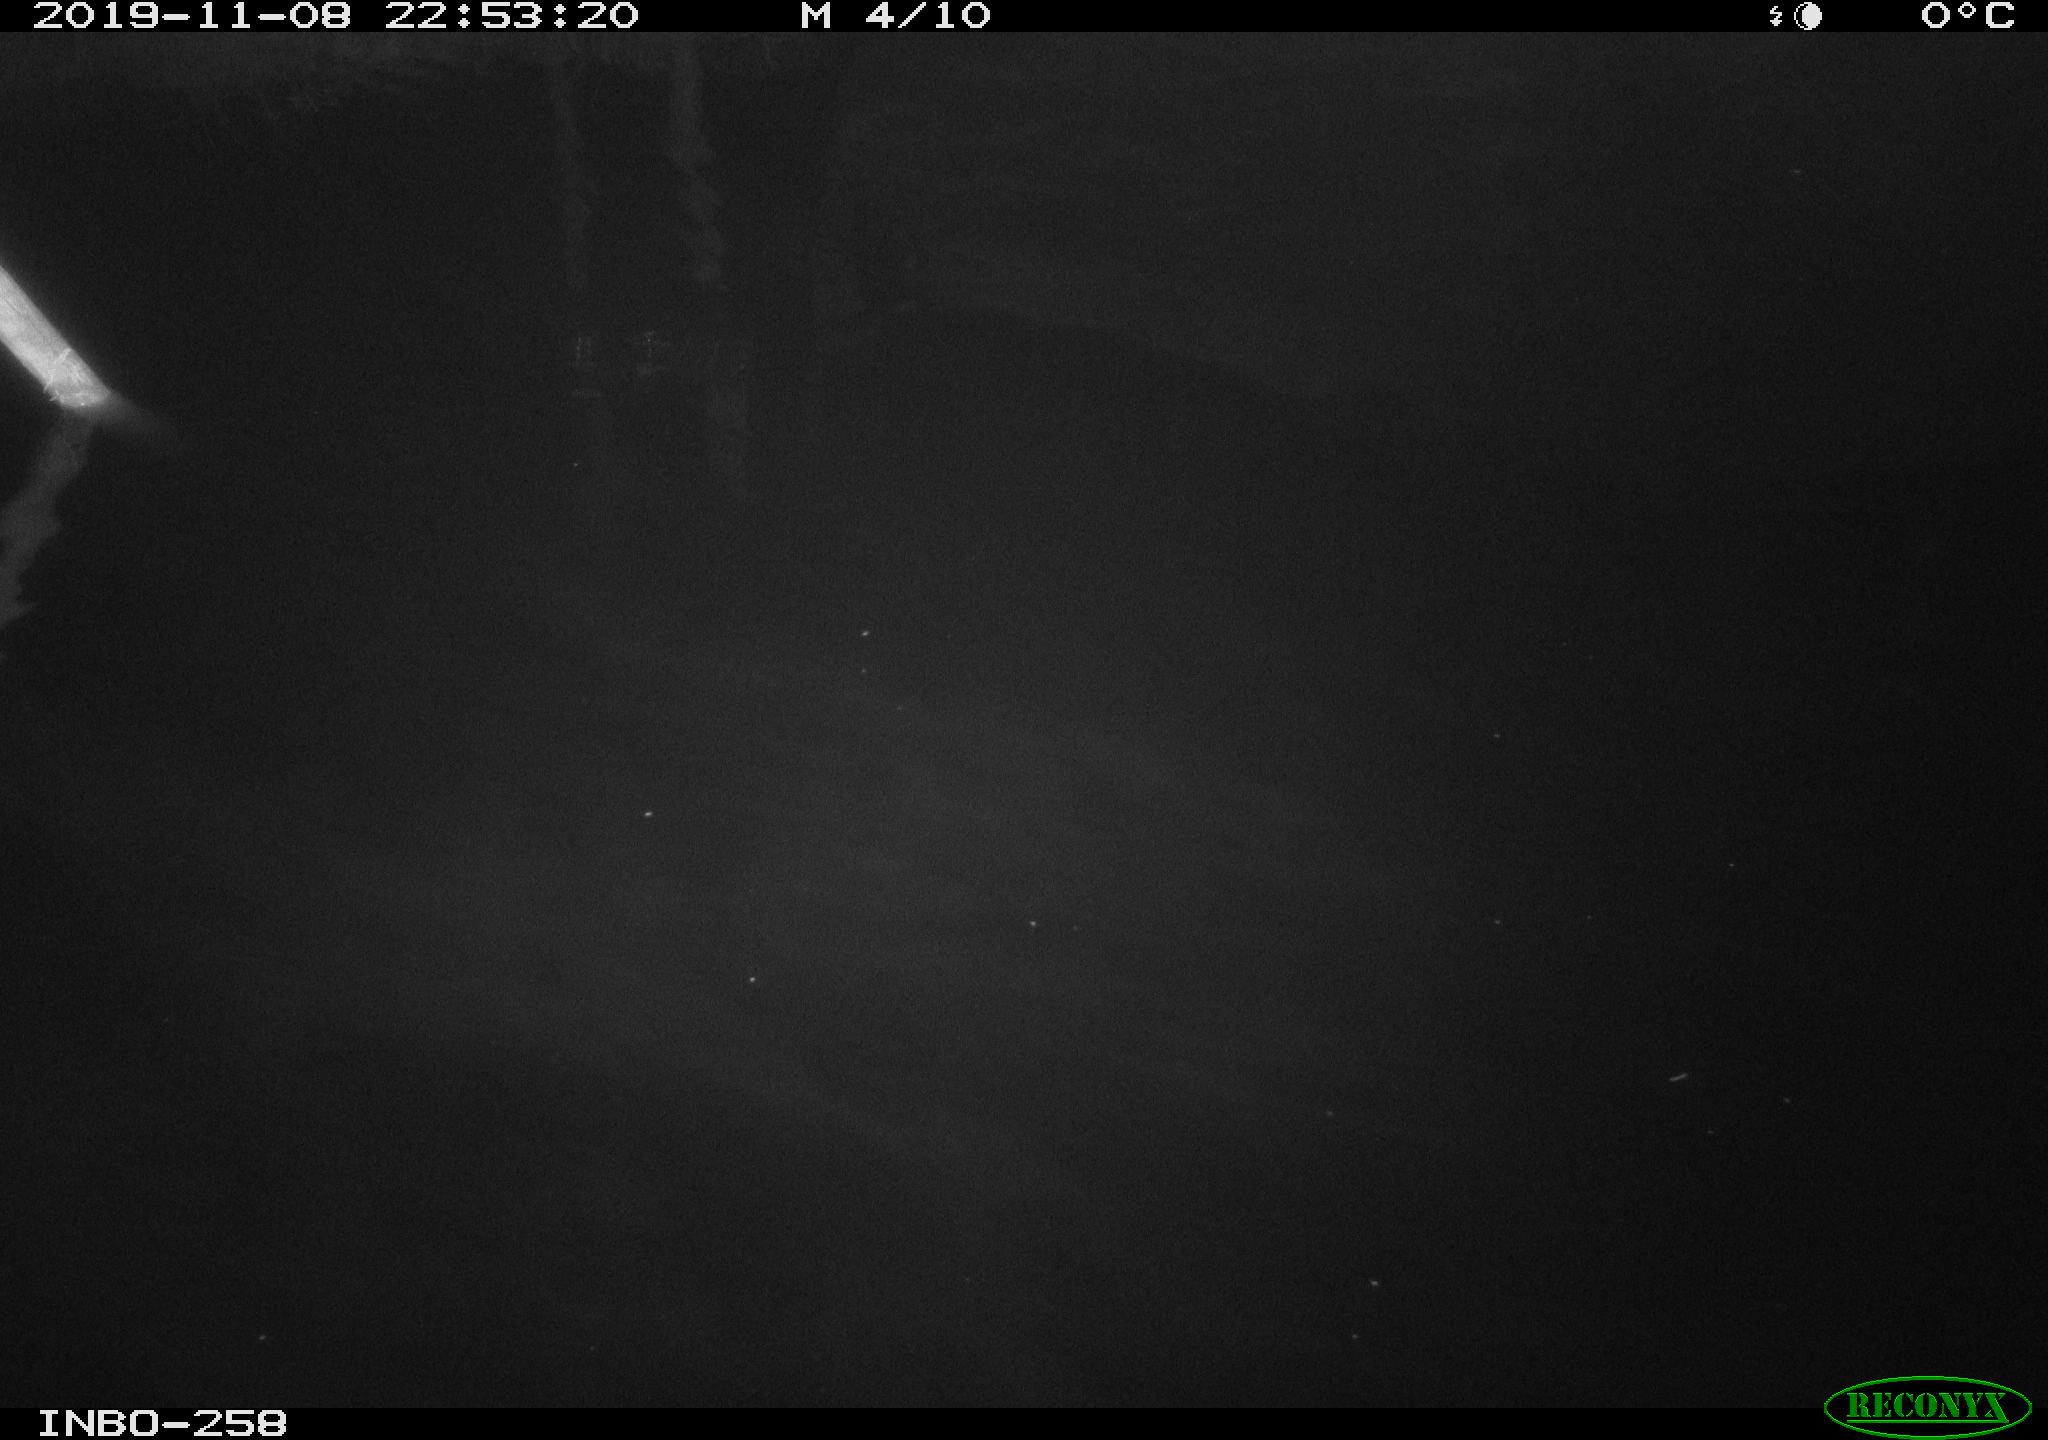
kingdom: Animalia
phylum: Chordata
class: Aves
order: Anseriformes
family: Anatidae
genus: Anas
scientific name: Anas platyrhynchos
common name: Mallard
